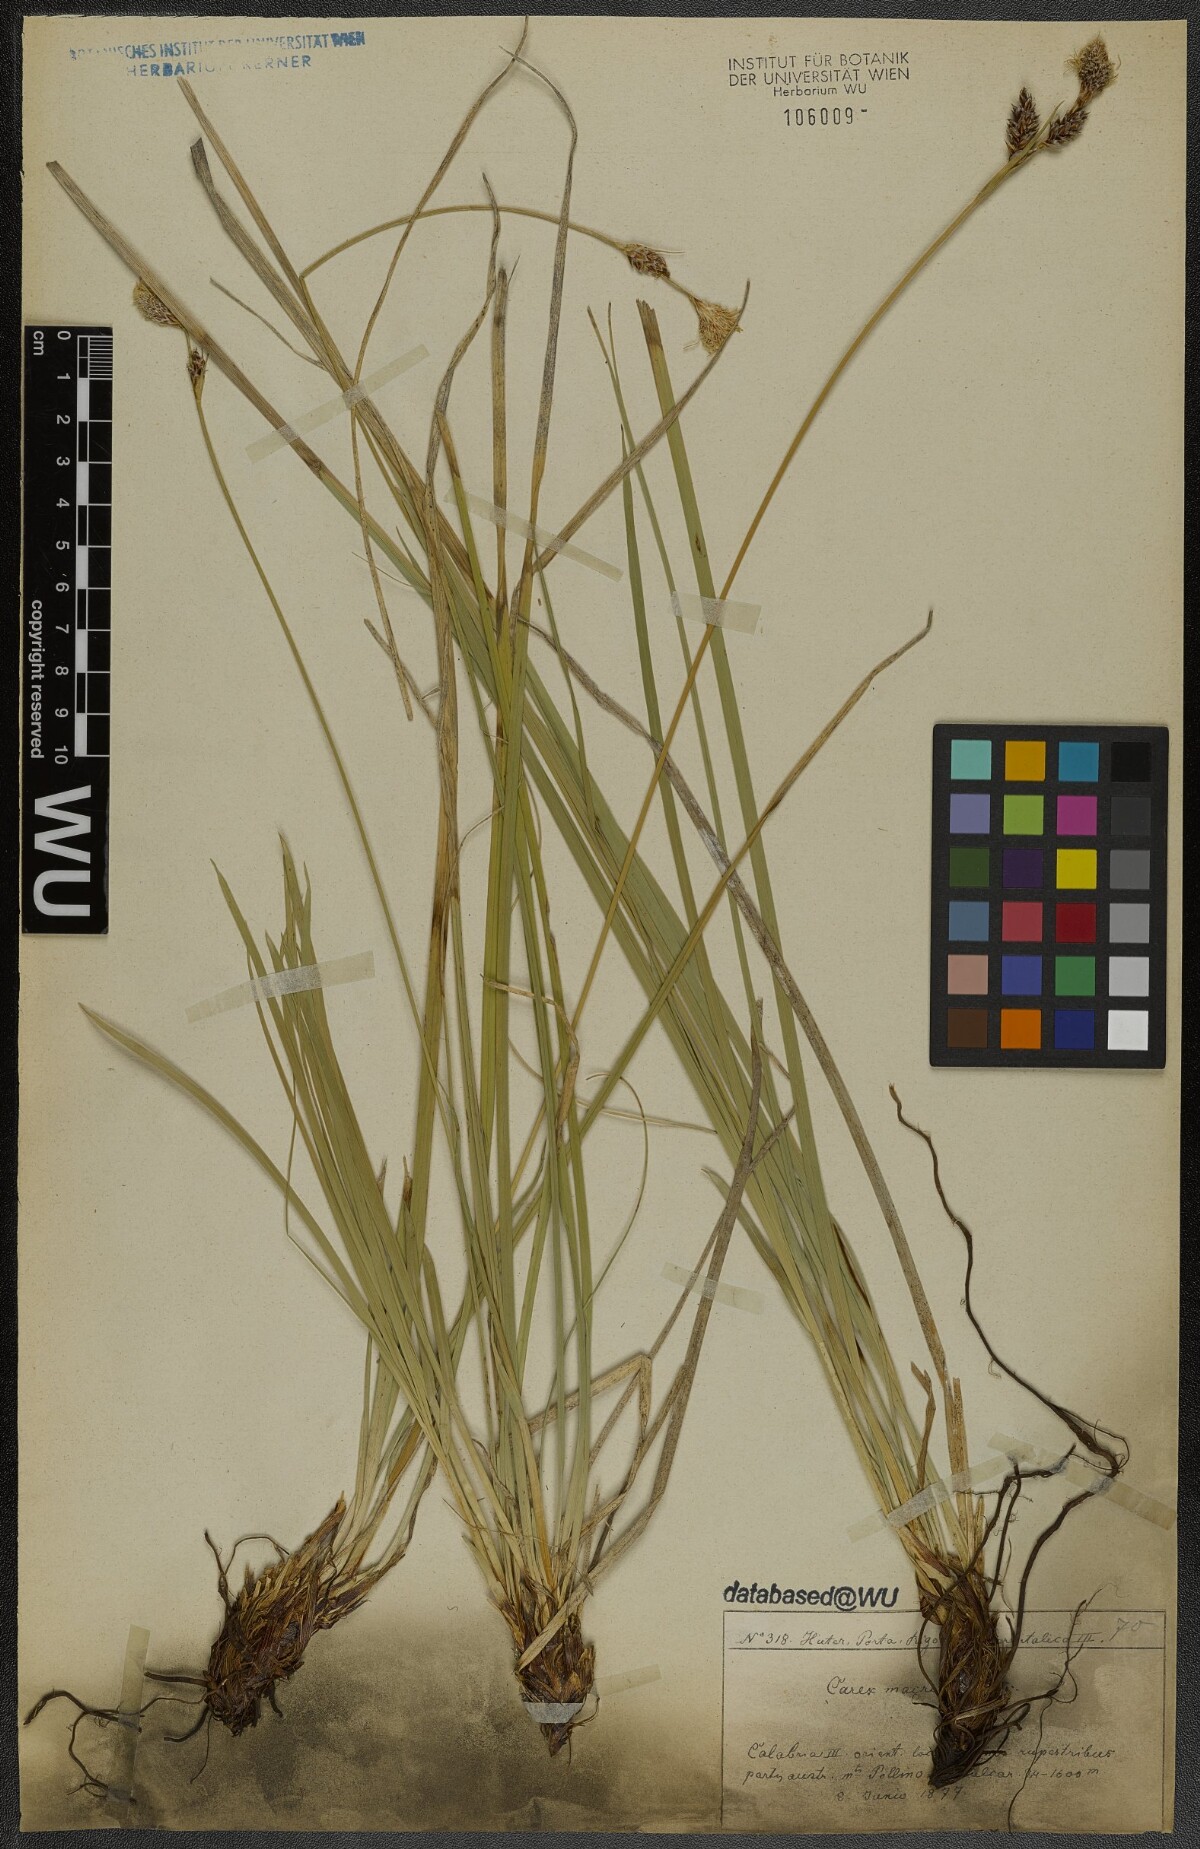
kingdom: Plantae
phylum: Tracheophyta
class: Liliopsida
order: Poales
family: Cyperaceae
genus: Carex
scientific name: Carex macrolepis
